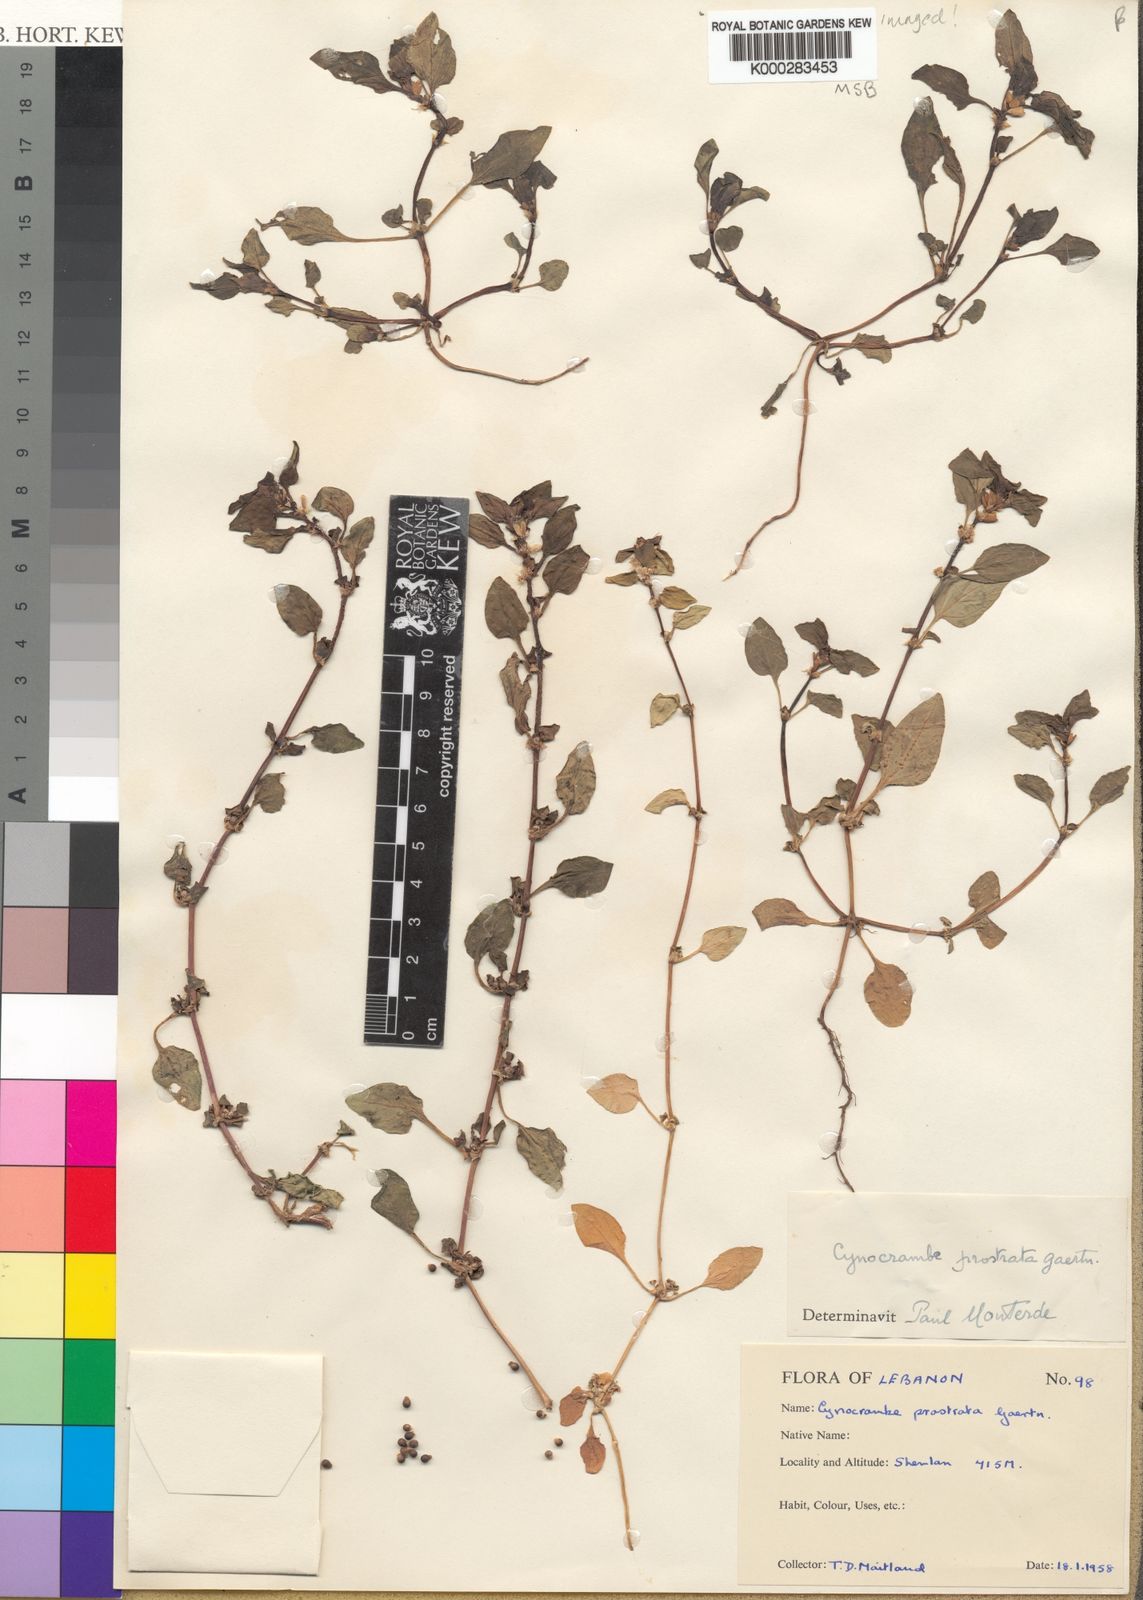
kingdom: Plantae
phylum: Tracheophyta
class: Magnoliopsida
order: Gentianales
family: Rubiaceae
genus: Theligonum
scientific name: Theligonum cynocrambe
